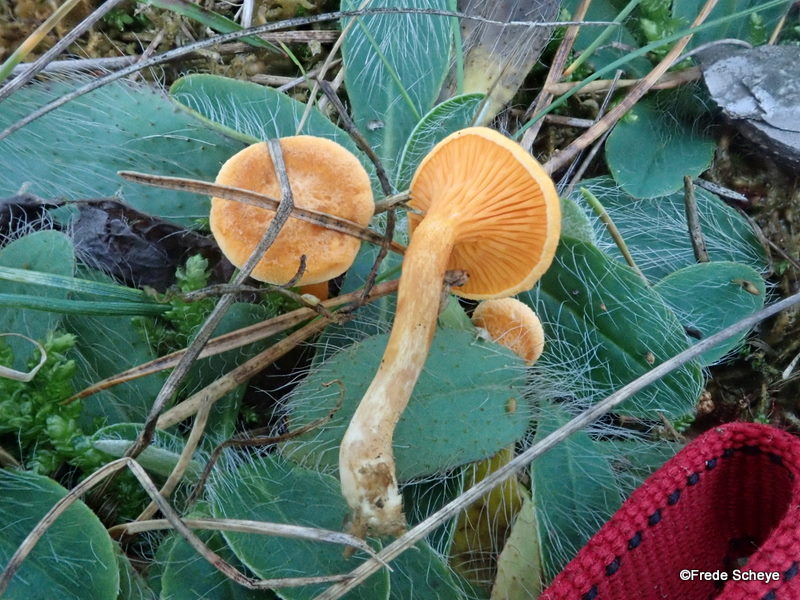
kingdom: Fungi
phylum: Basidiomycota
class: Agaricomycetes
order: Boletales
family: Hygrophoropsidaceae
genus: Hygrophoropsis
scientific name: Hygrophoropsis aurantiaca
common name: almindelig orangekantarel
